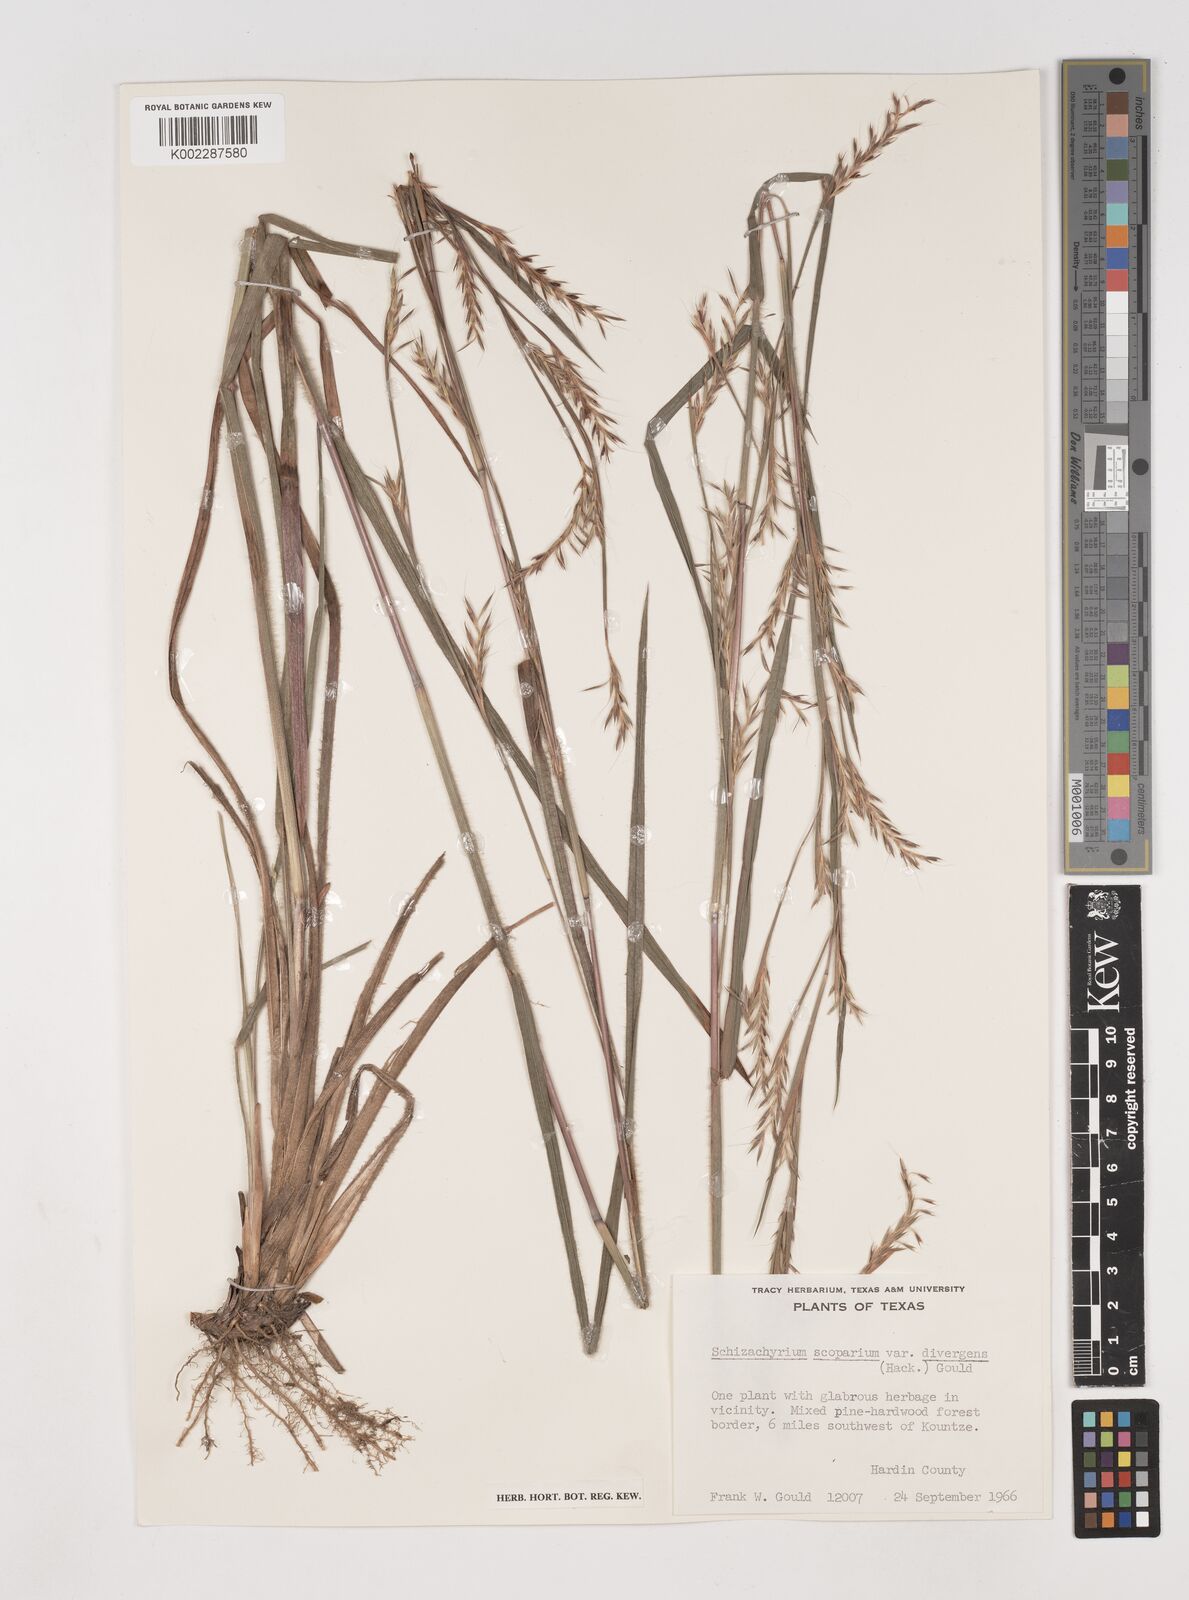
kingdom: Plantae
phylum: Tracheophyta
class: Liliopsida
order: Poales
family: Poaceae
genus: Schizachyrium
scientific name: Schizachyrium scoparium
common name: Little bluestem
